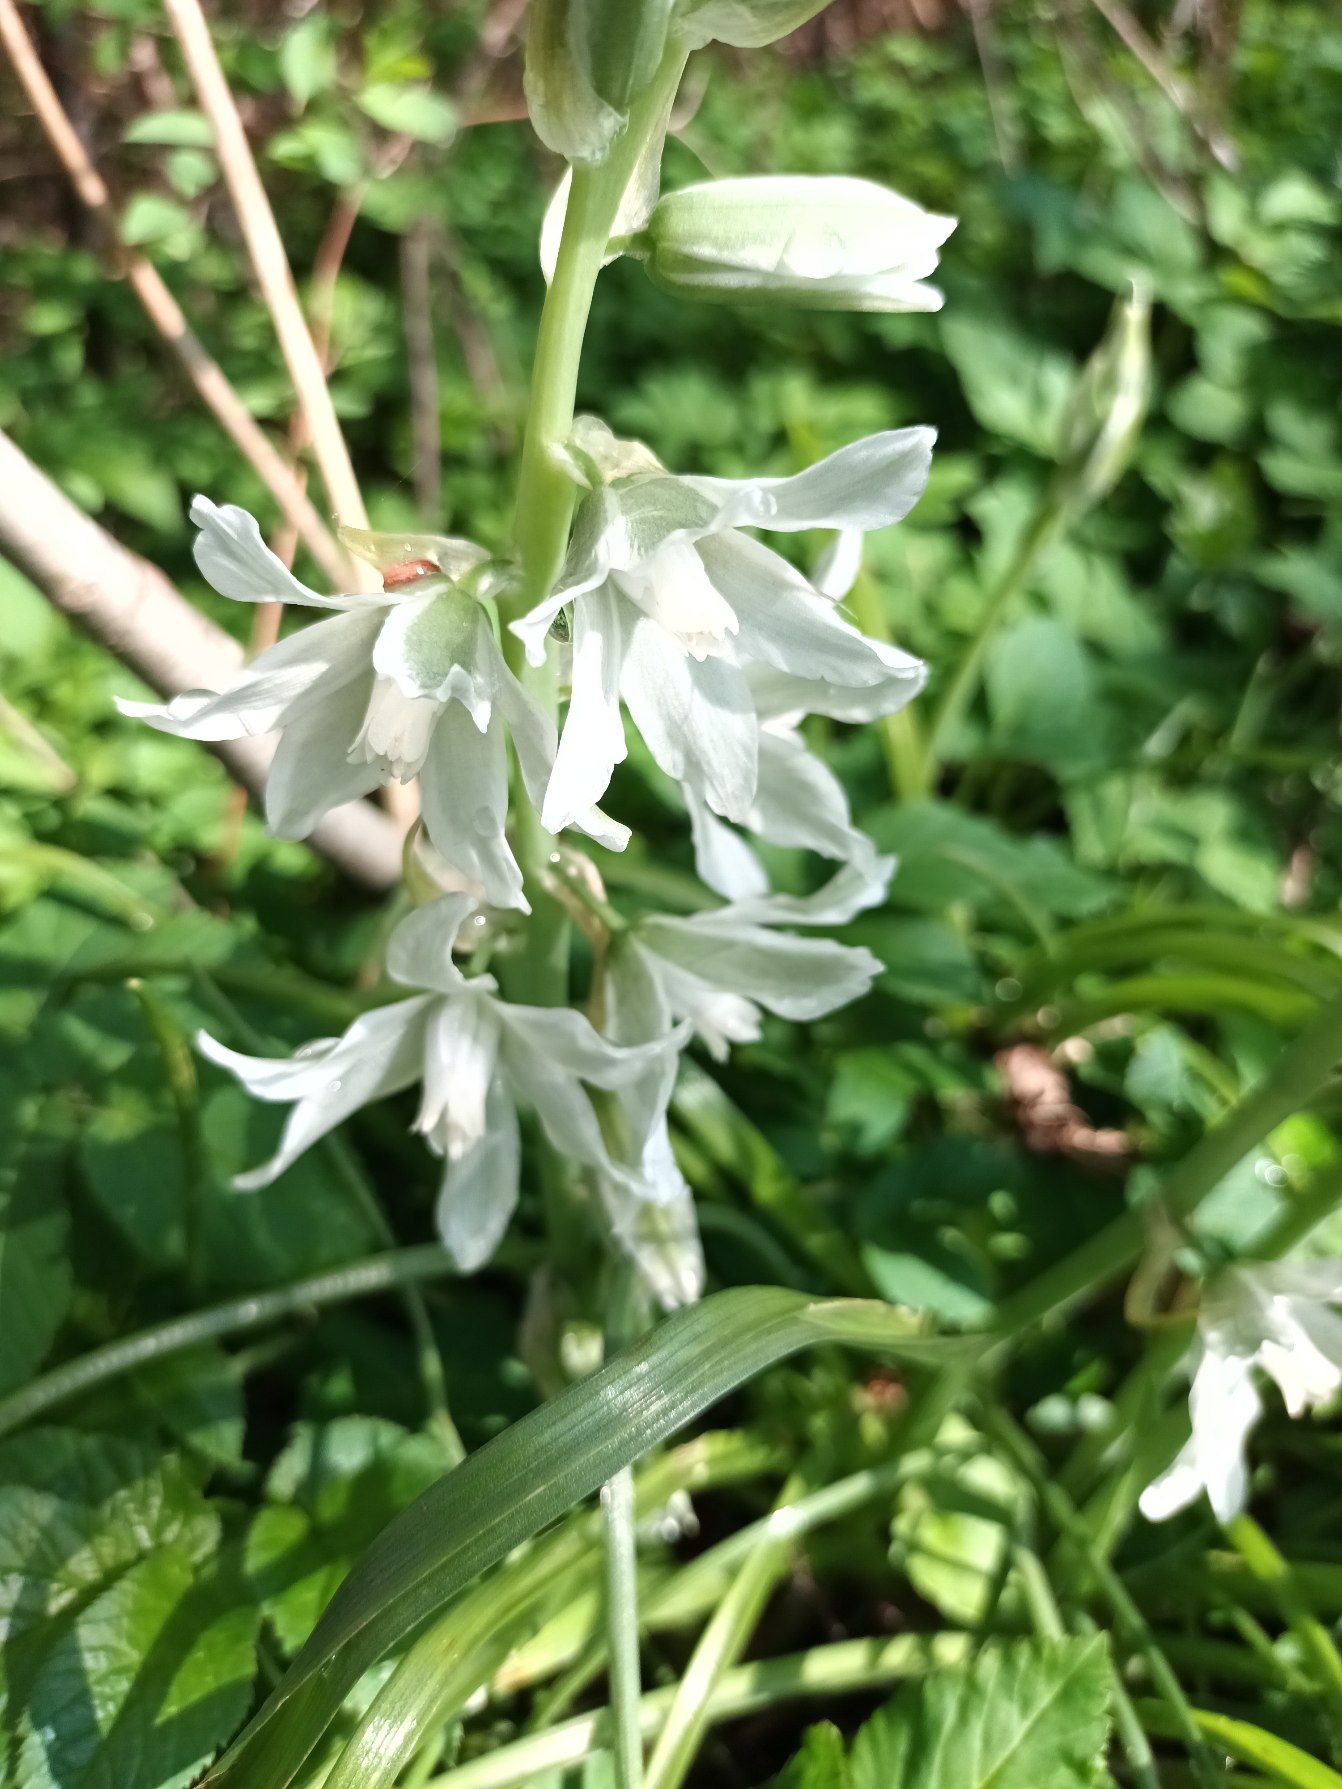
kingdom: Plantae
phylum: Tracheophyta
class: Liliopsida
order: Asparagales
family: Asparagaceae
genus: Ornithogalum
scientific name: Ornithogalum nutans
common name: Nikkende fuglemælk
